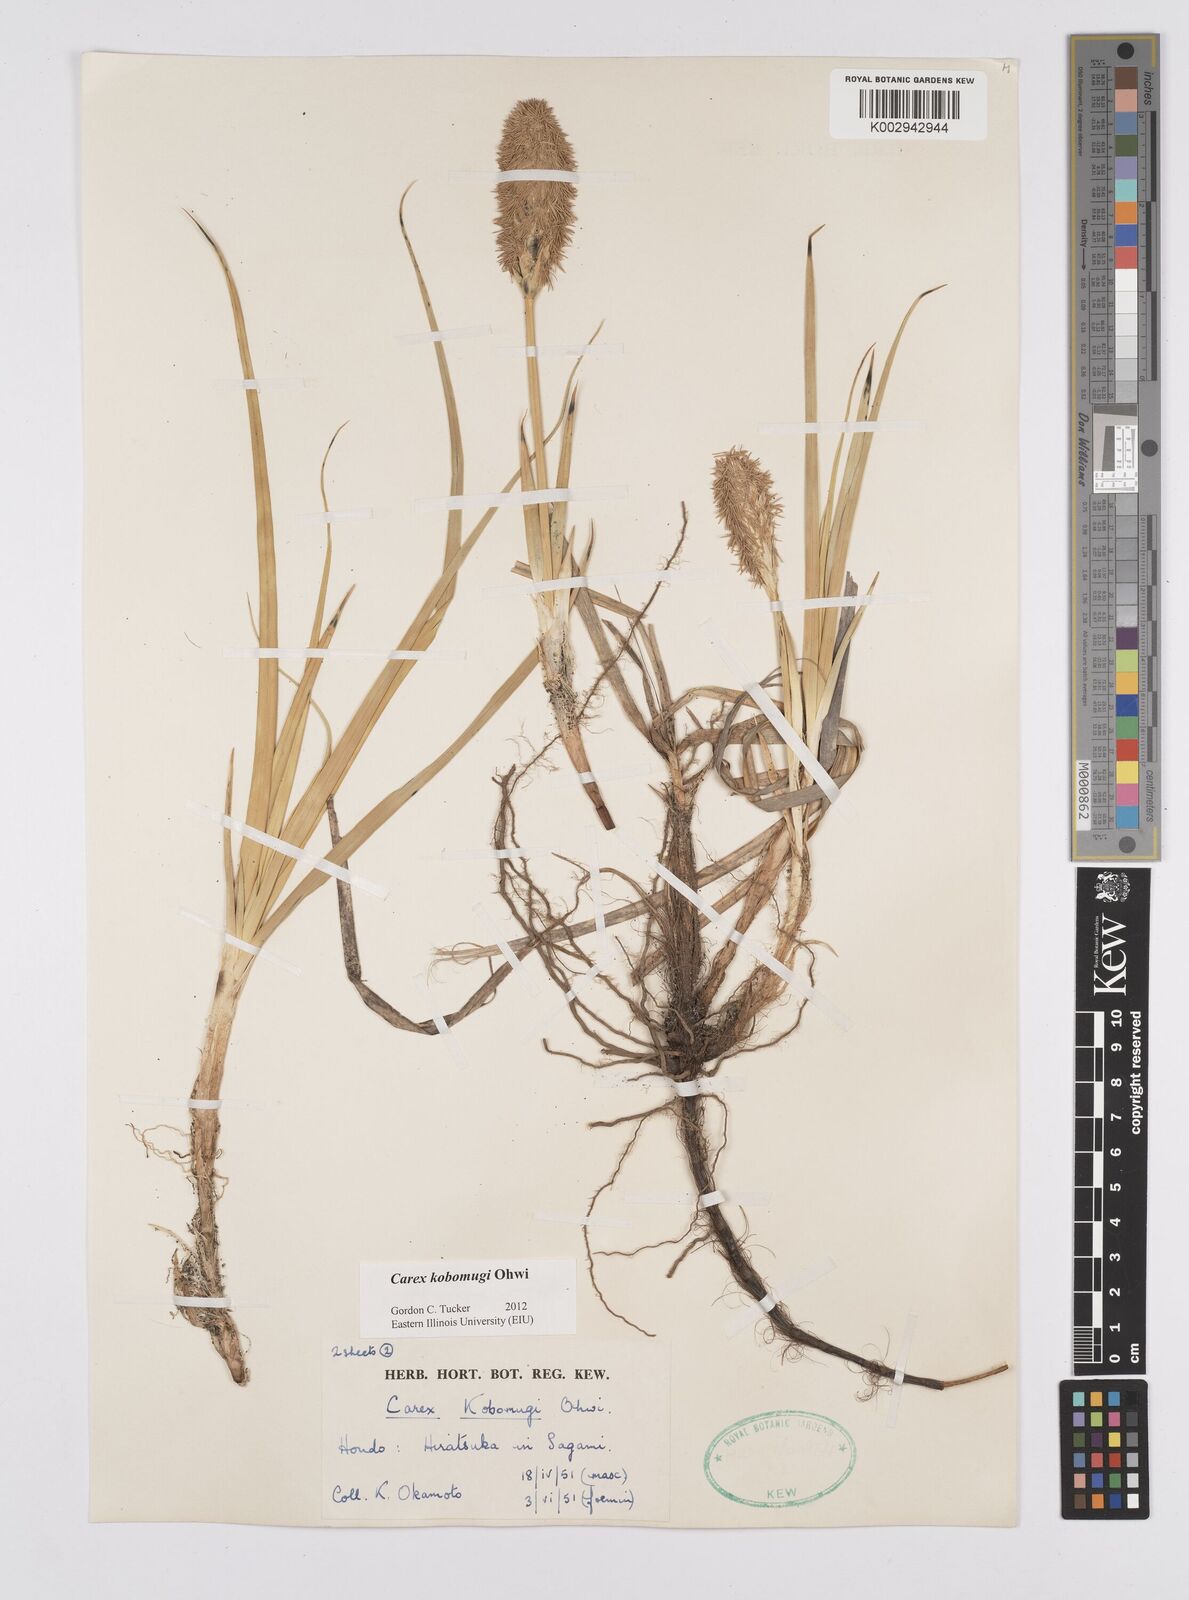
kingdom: Plantae
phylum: Tracheophyta
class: Liliopsida
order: Poales
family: Cyperaceae
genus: Carex
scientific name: Carex kobomugi
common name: Japanese sedge
